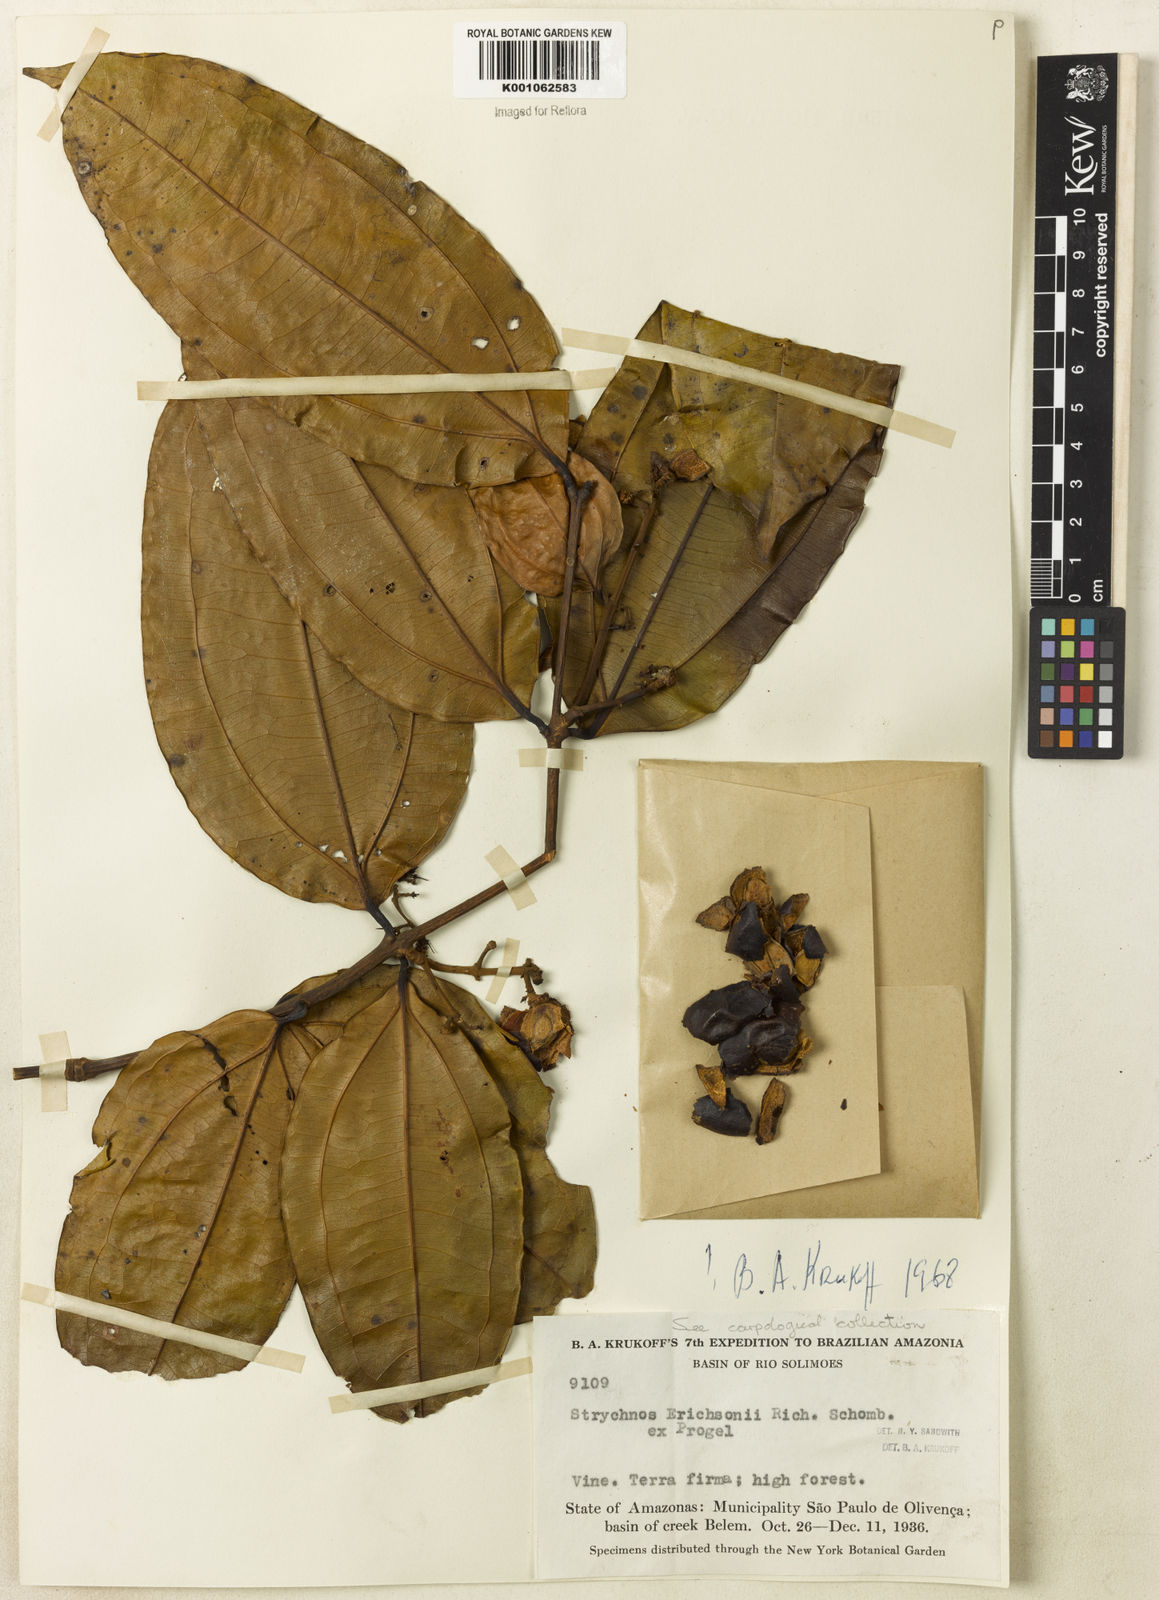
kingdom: Plantae
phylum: Tracheophyta
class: Magnoliopsida
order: Gentianales
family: Loganiaceae
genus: Strychnos
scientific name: Strychnos erichsonii
